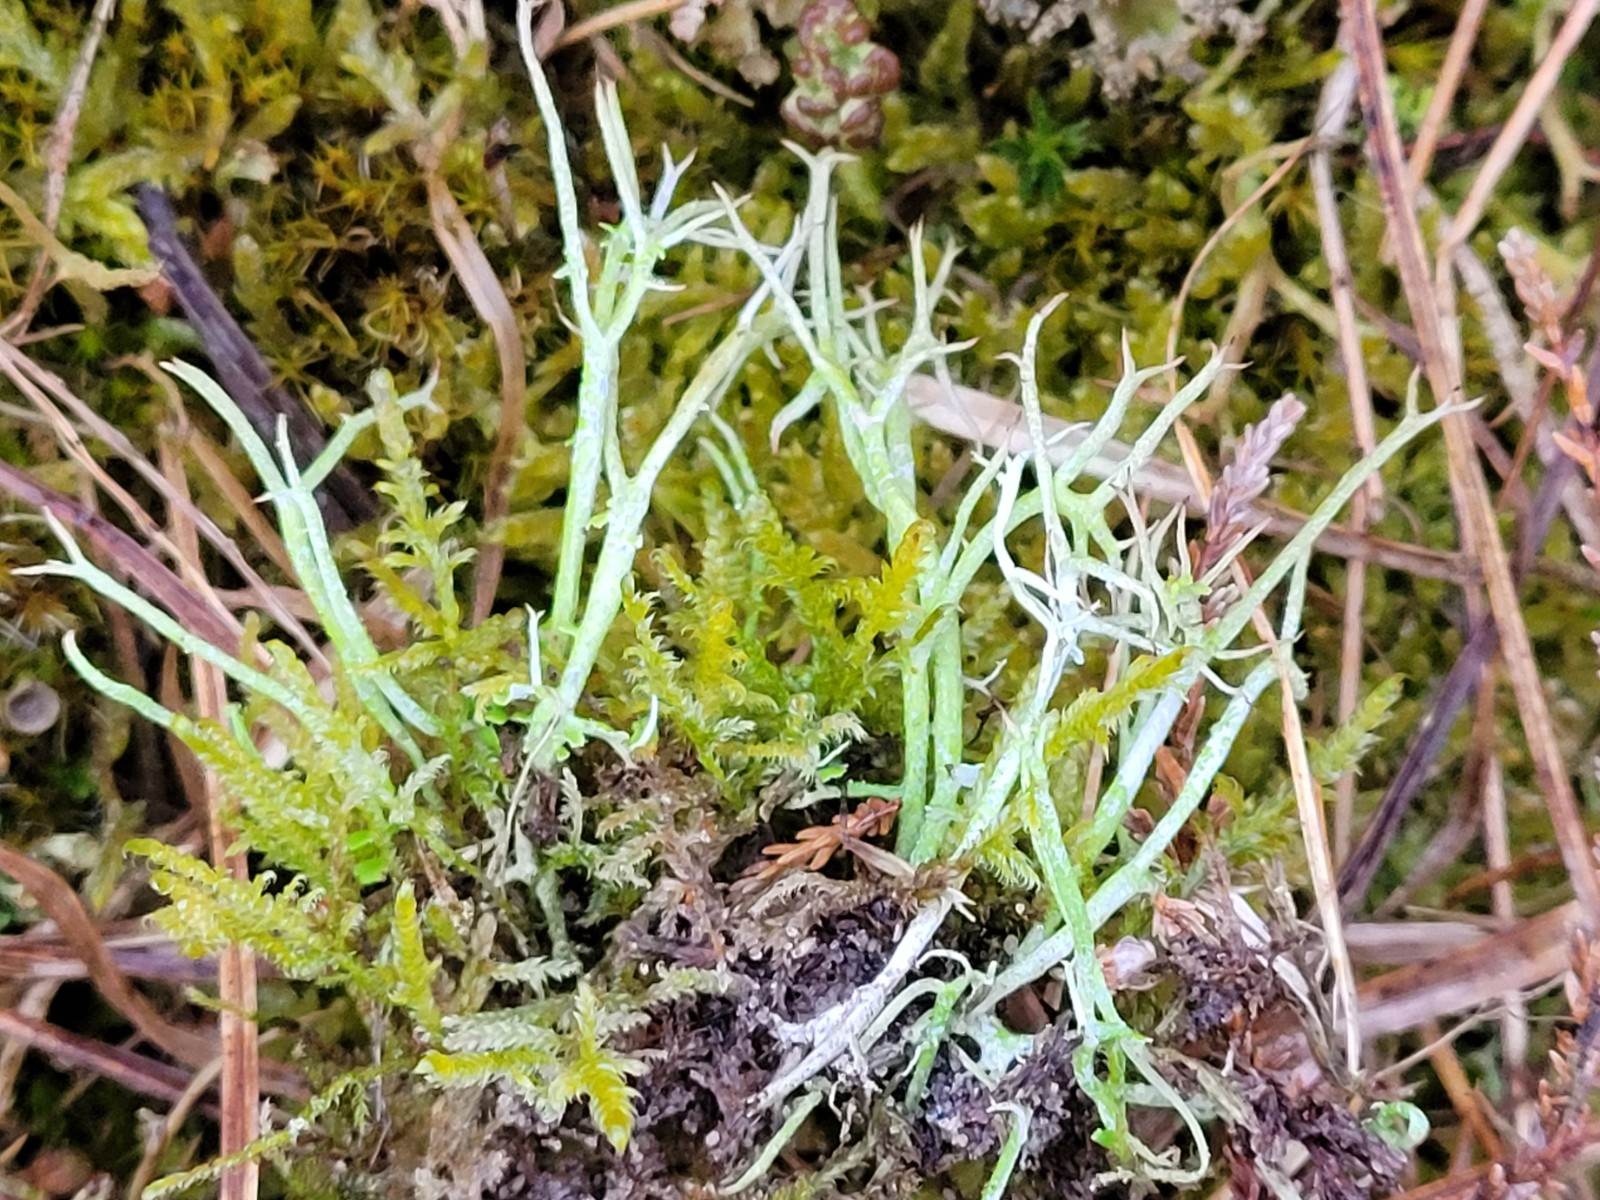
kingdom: Fungi
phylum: Ascomycota
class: Lecanoromycetes
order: Lecanorales
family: Cladoniaceae
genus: Cladonia
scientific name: Cladonia furcata
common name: kløftet bægerlav
